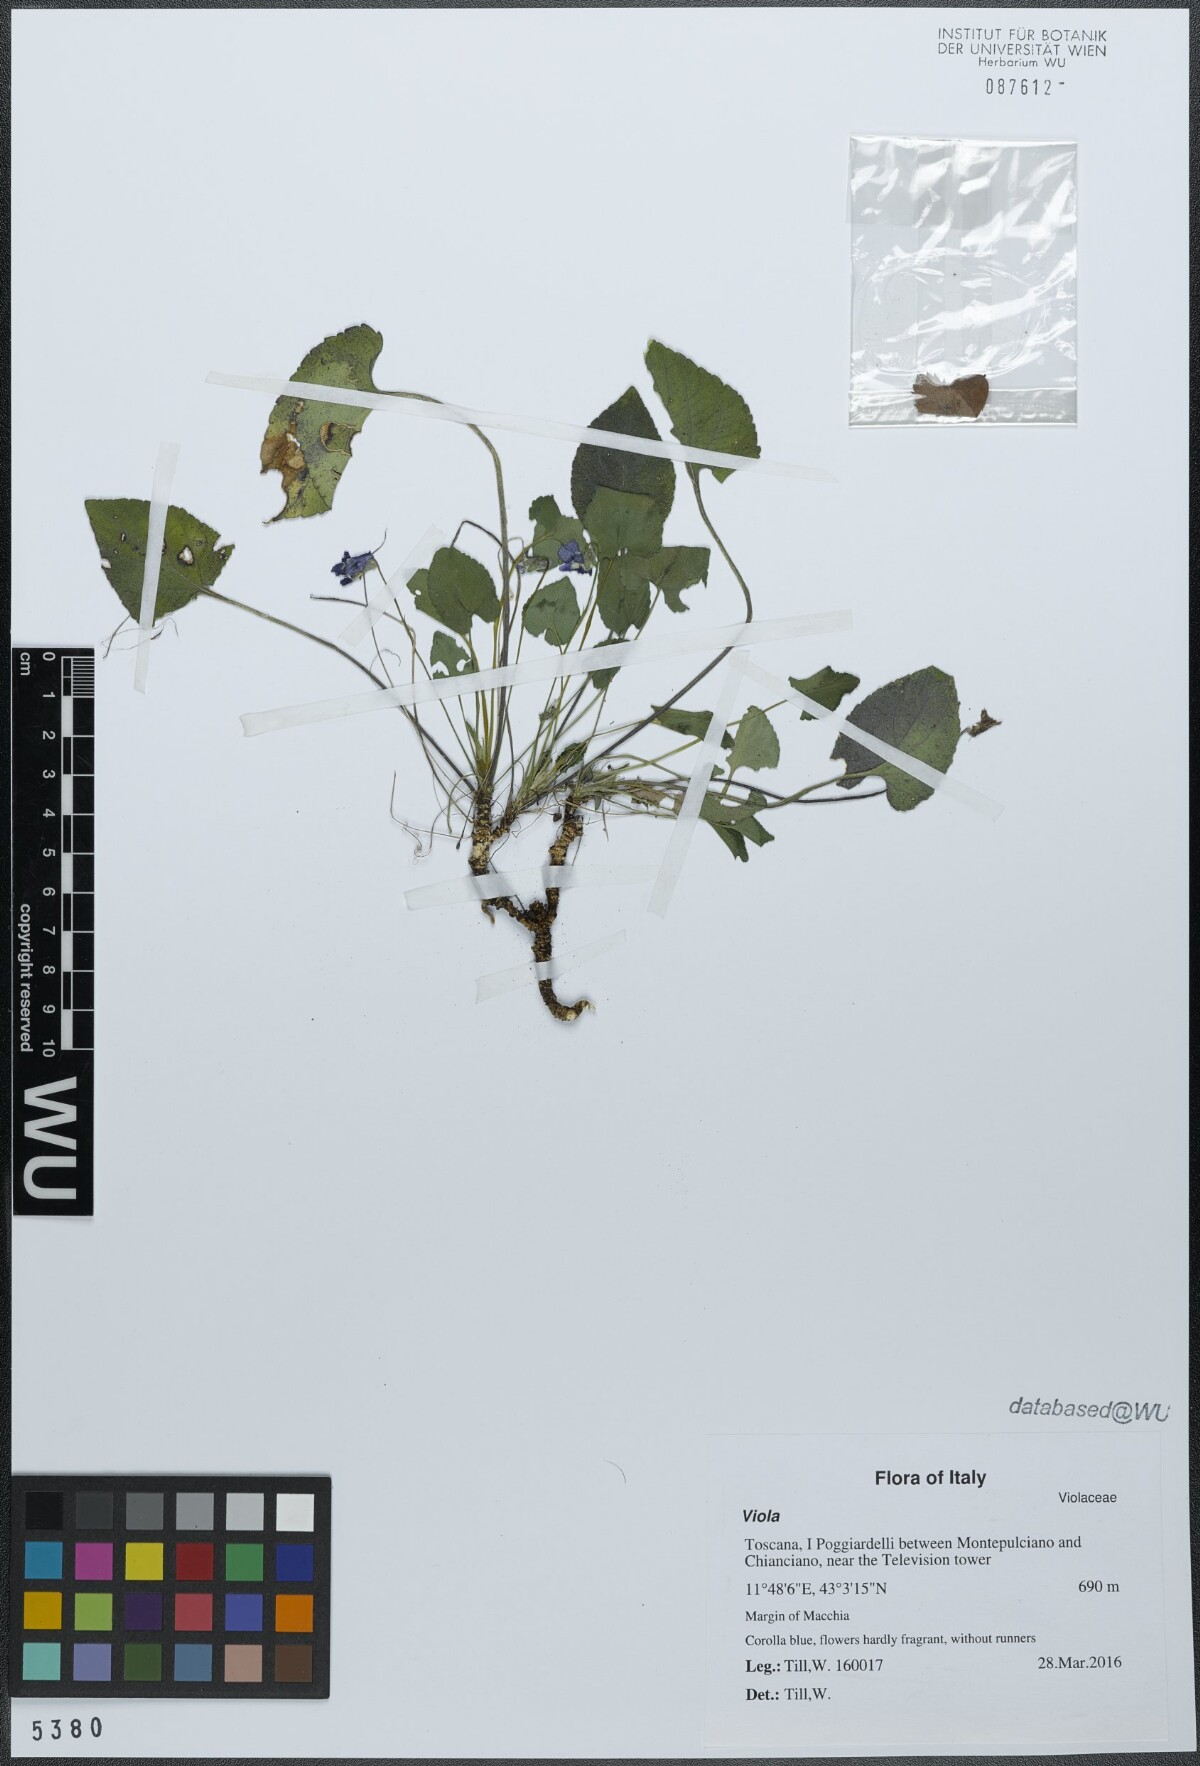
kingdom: Plantae
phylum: Tracheophyta
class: Magnoliopsida
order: Malpighiales
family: Violaceae
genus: Viola
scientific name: Viola alba
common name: White violet
